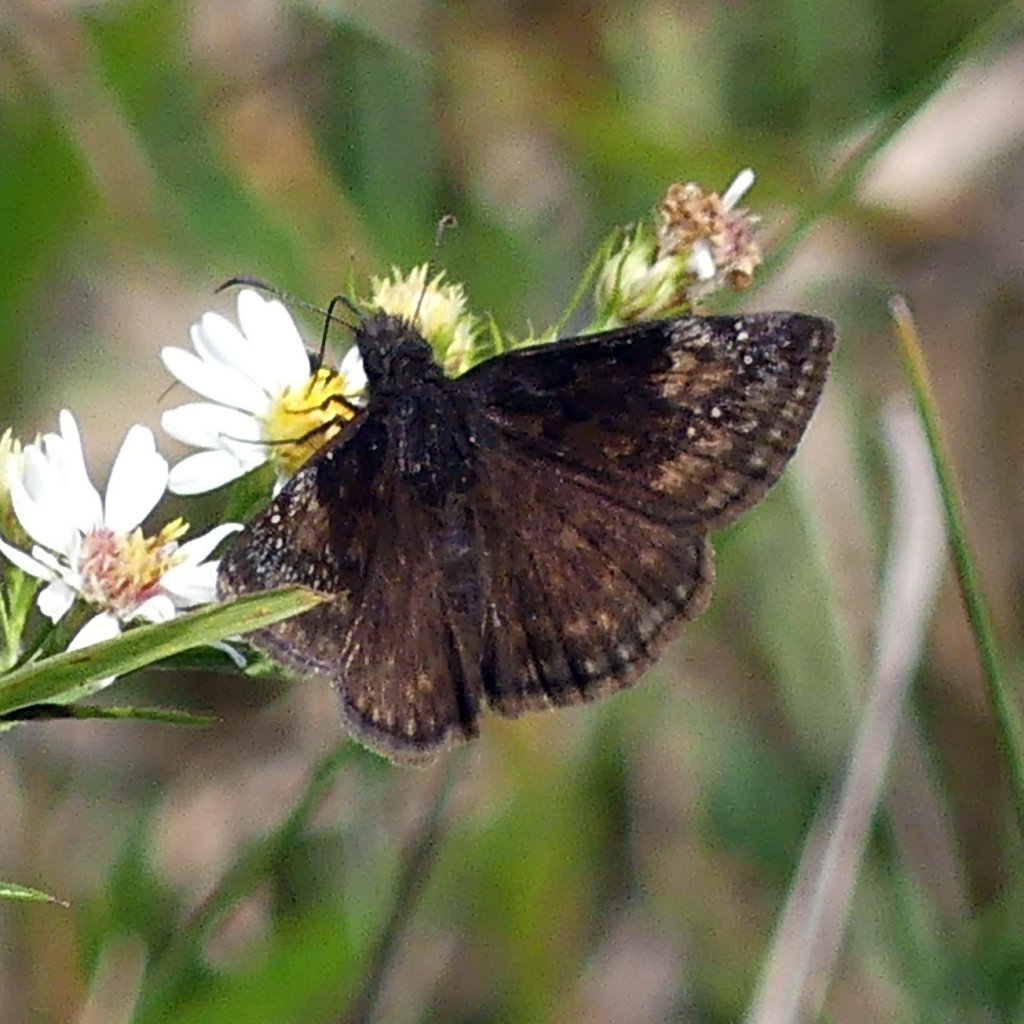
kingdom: Animalia
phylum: Arthropoda
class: Insecta
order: Lepidoptera
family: Hesperiidae
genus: Gesta
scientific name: Gesta
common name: Wild Indigo Duskywing
